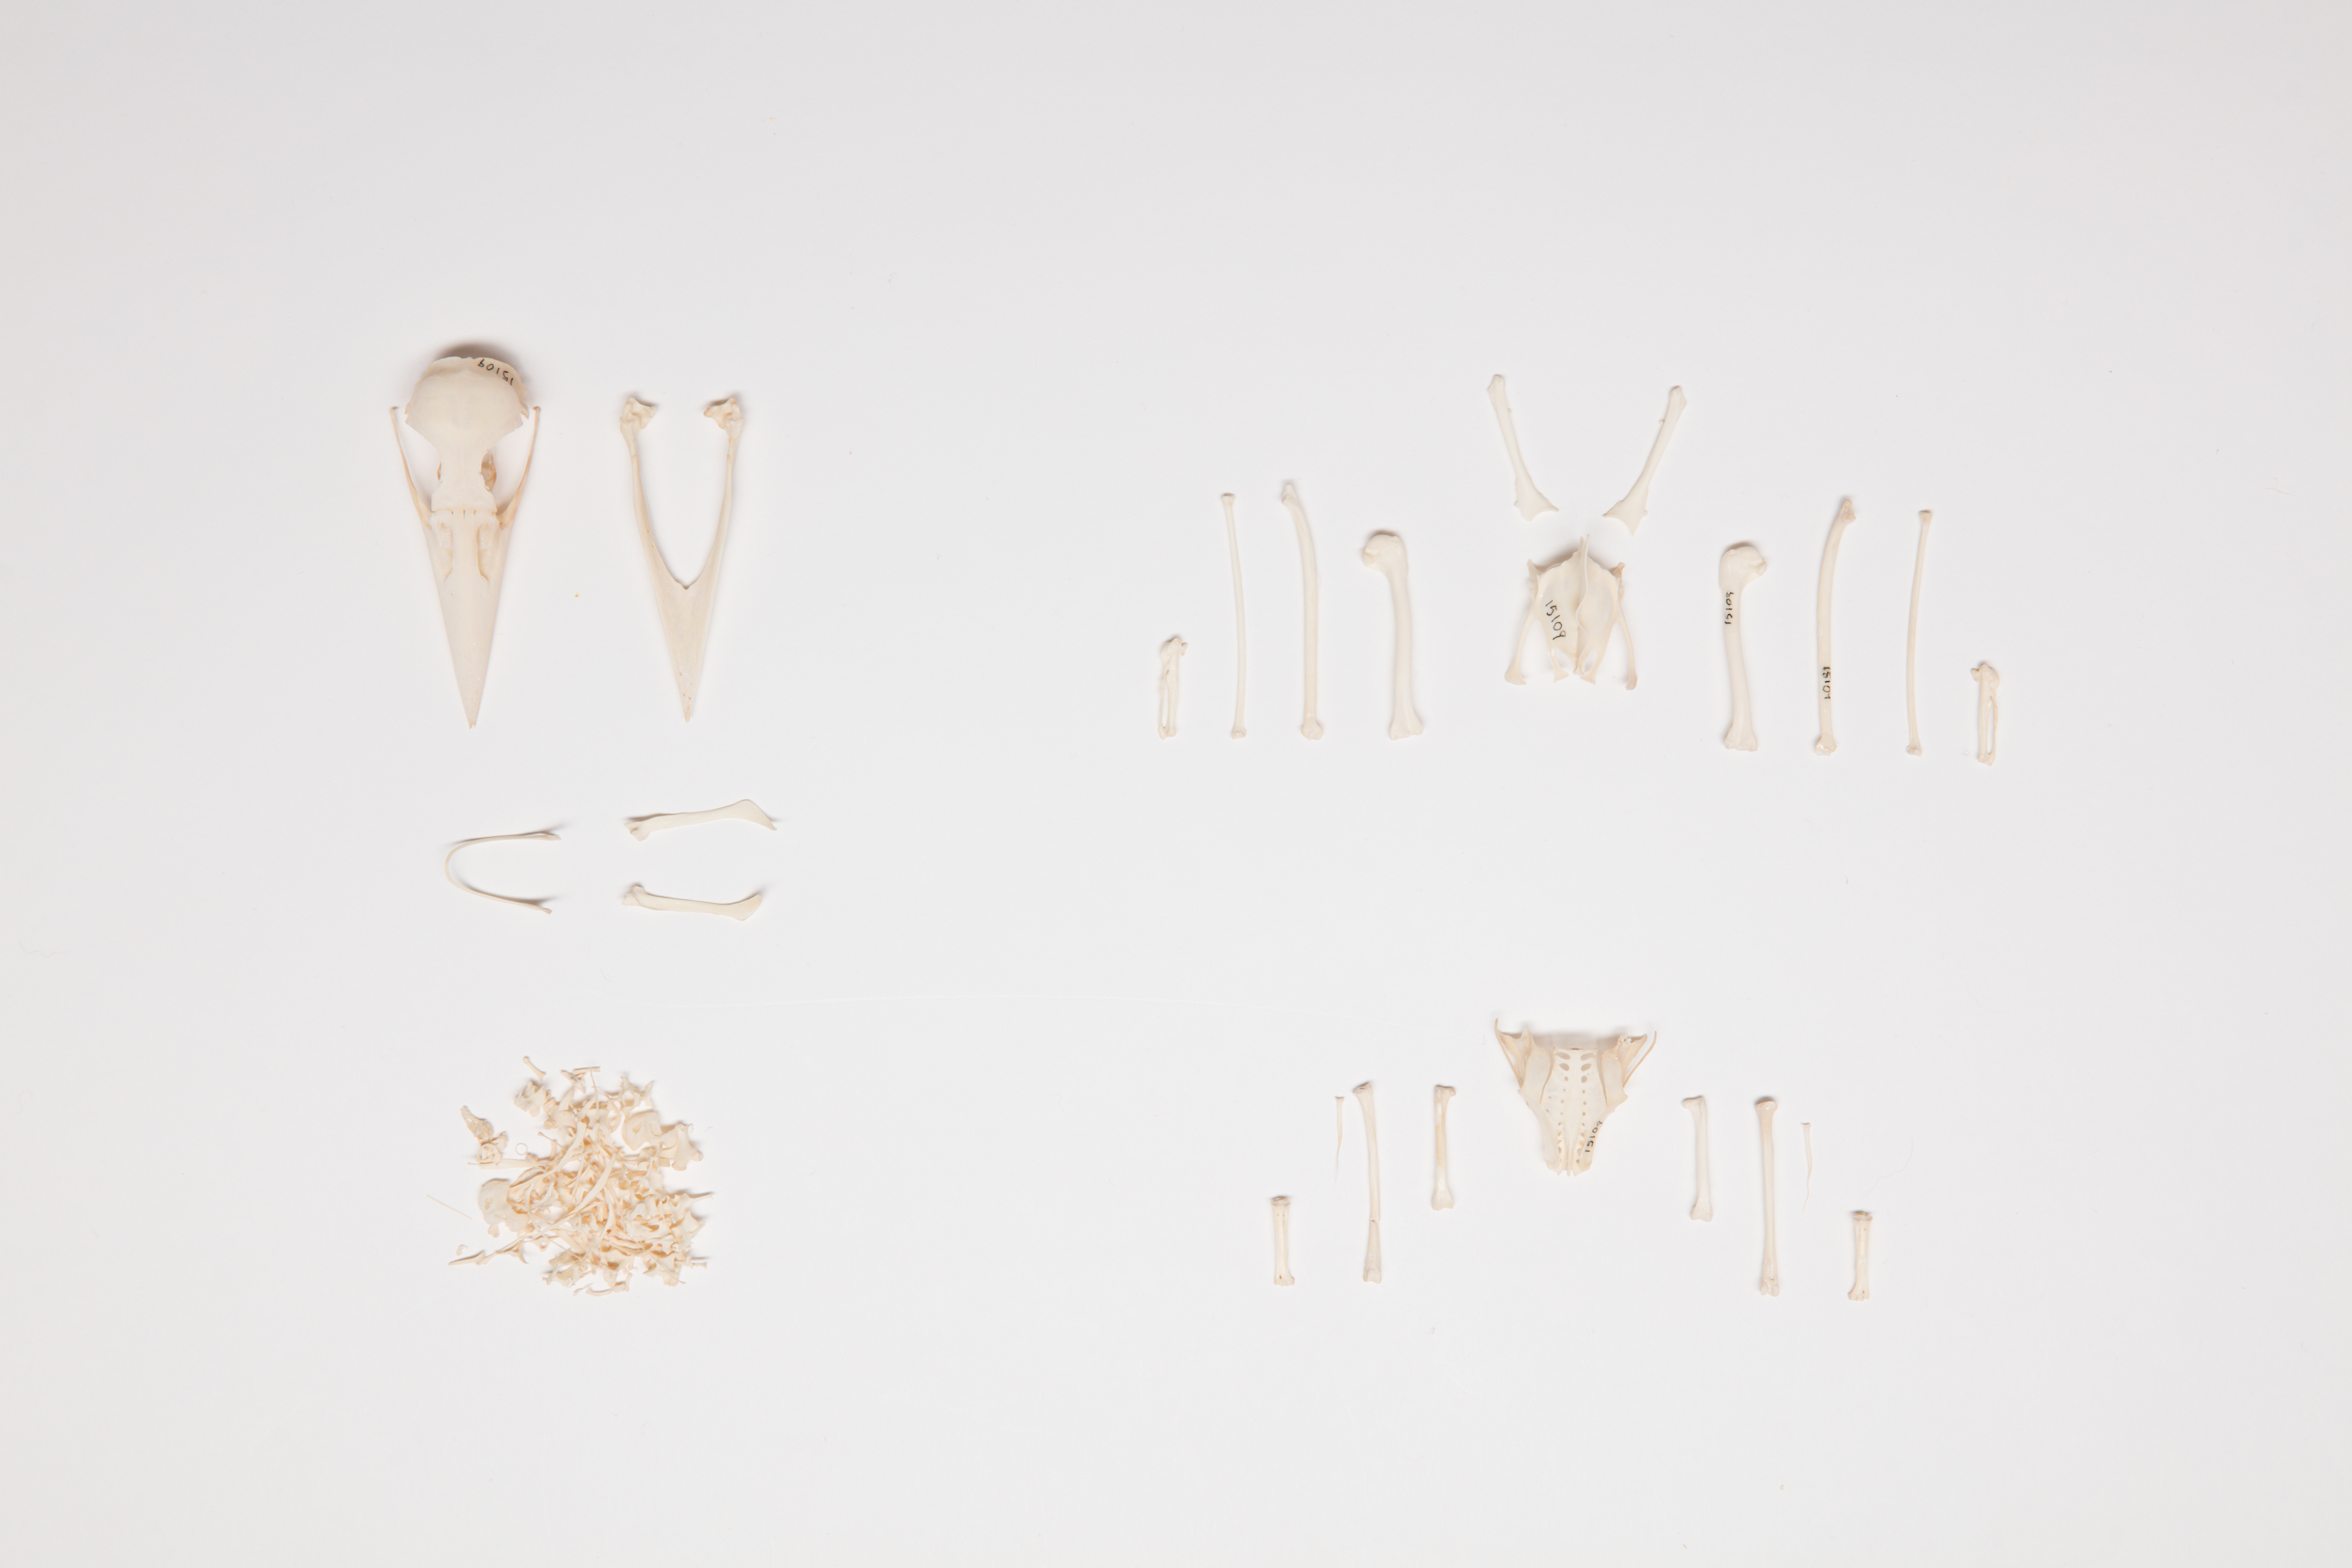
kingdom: Animalia
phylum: Chordata
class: Aves
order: Coraciiformes
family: Alcedinidae
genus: Todiramphus
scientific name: Todiramphus sanctus
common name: Sacred kingfisher
